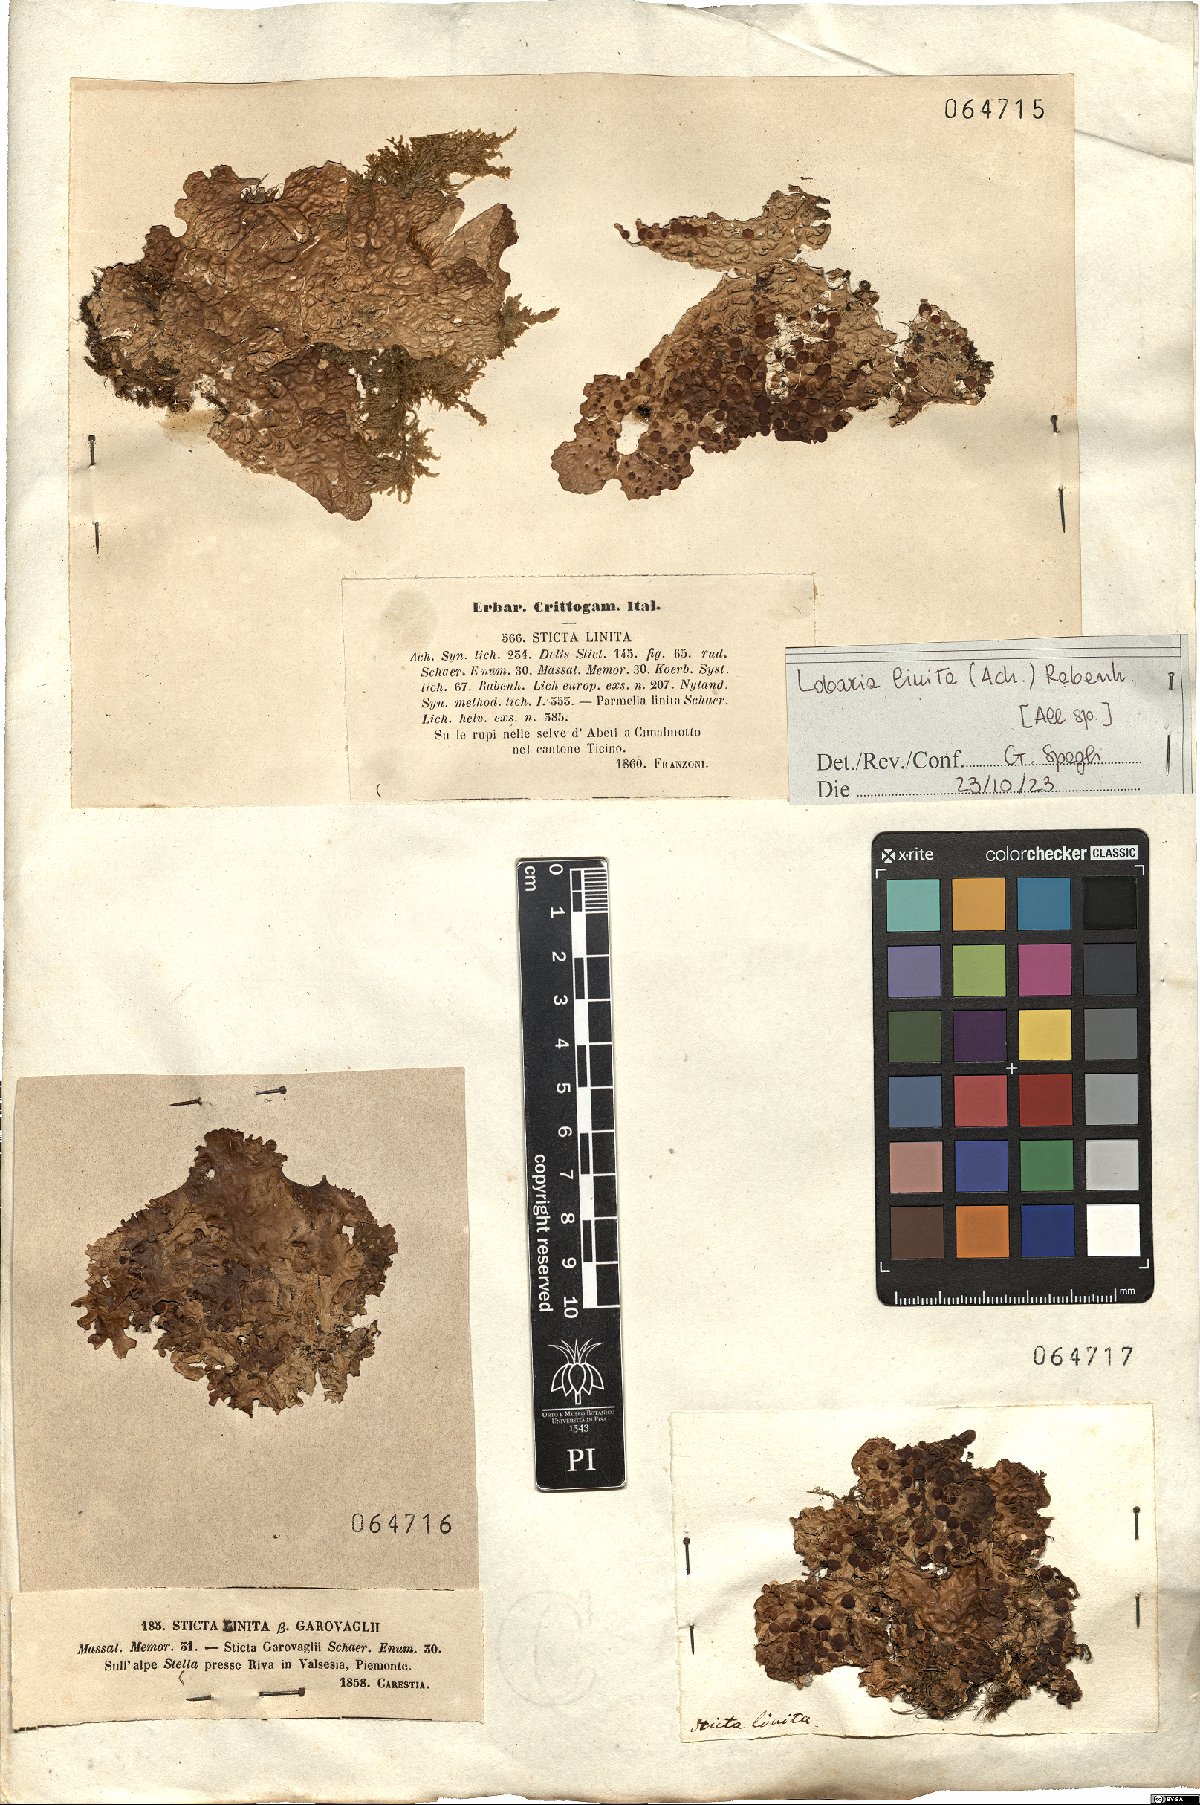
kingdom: Fungi
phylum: Ascomycota
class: Lecanoromycetes
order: Peltigerales
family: Lobariaceae
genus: Lobaria
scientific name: Lobaria linita
